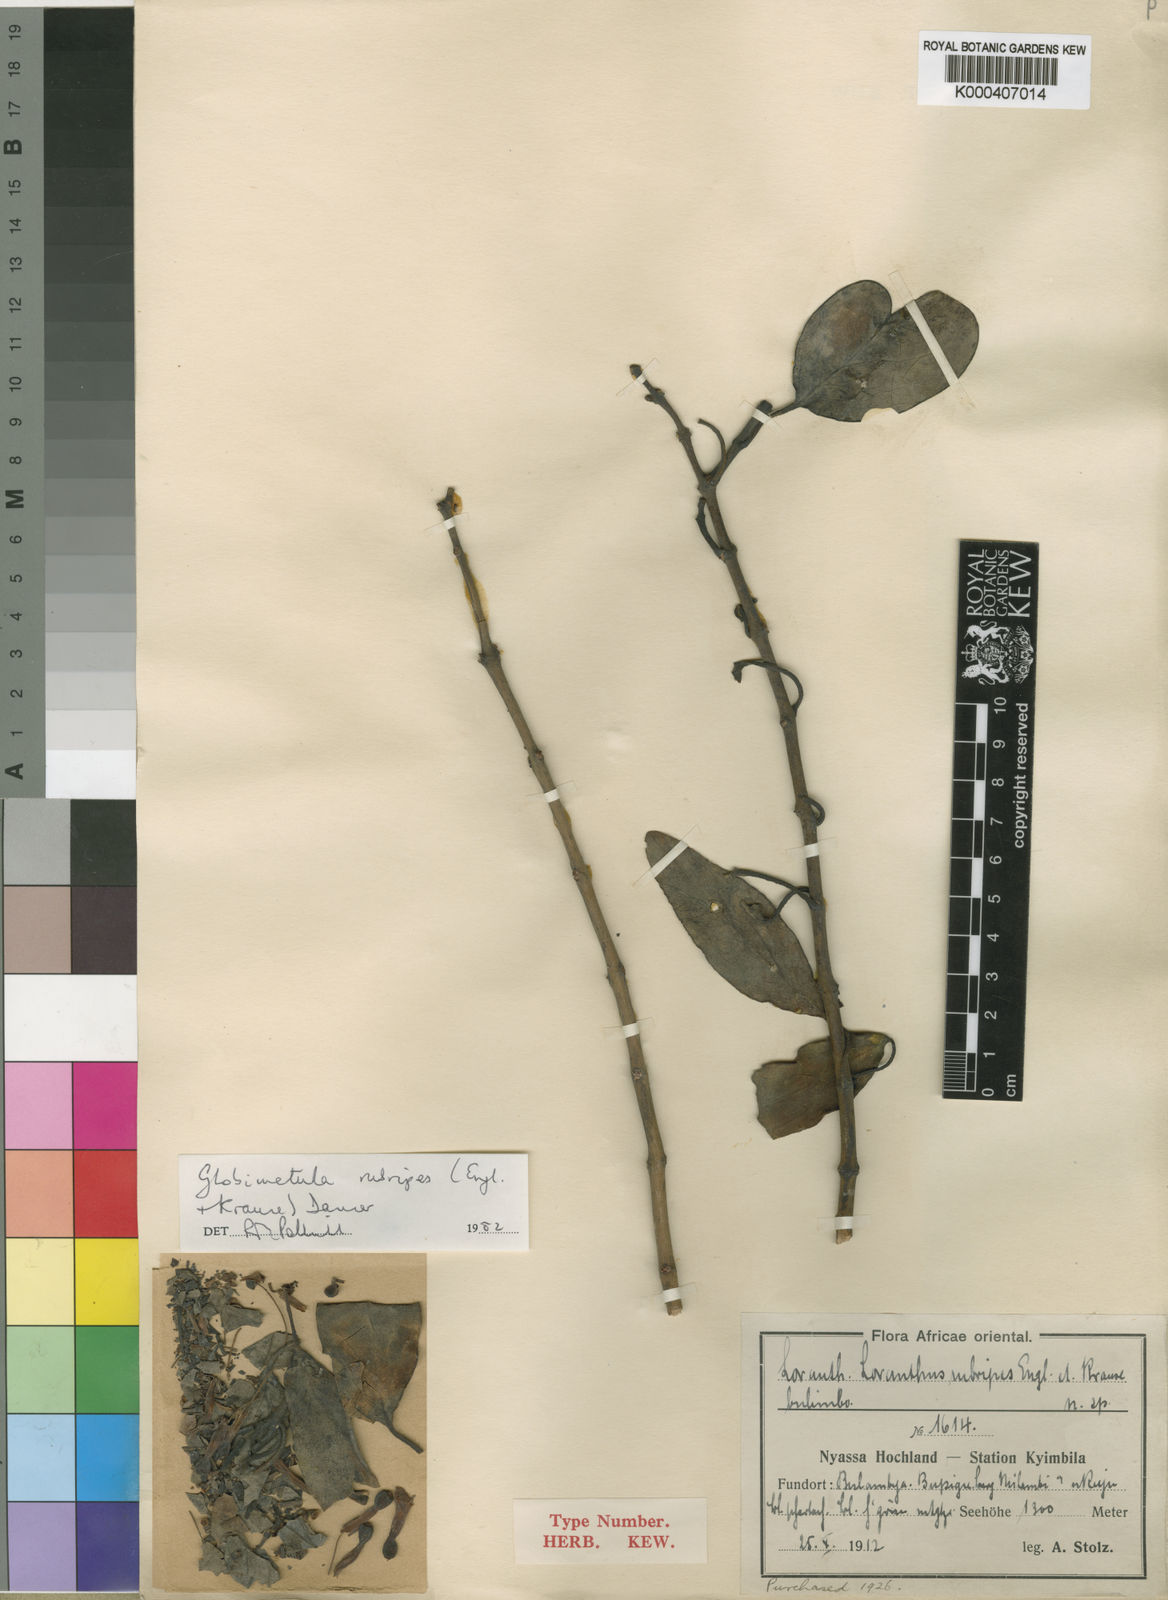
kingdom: Plantae
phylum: Tracheophyta
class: Magnoliopsida
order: Santalales
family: Loranthaceae
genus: Globimetula
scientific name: Globimetula rubripes
